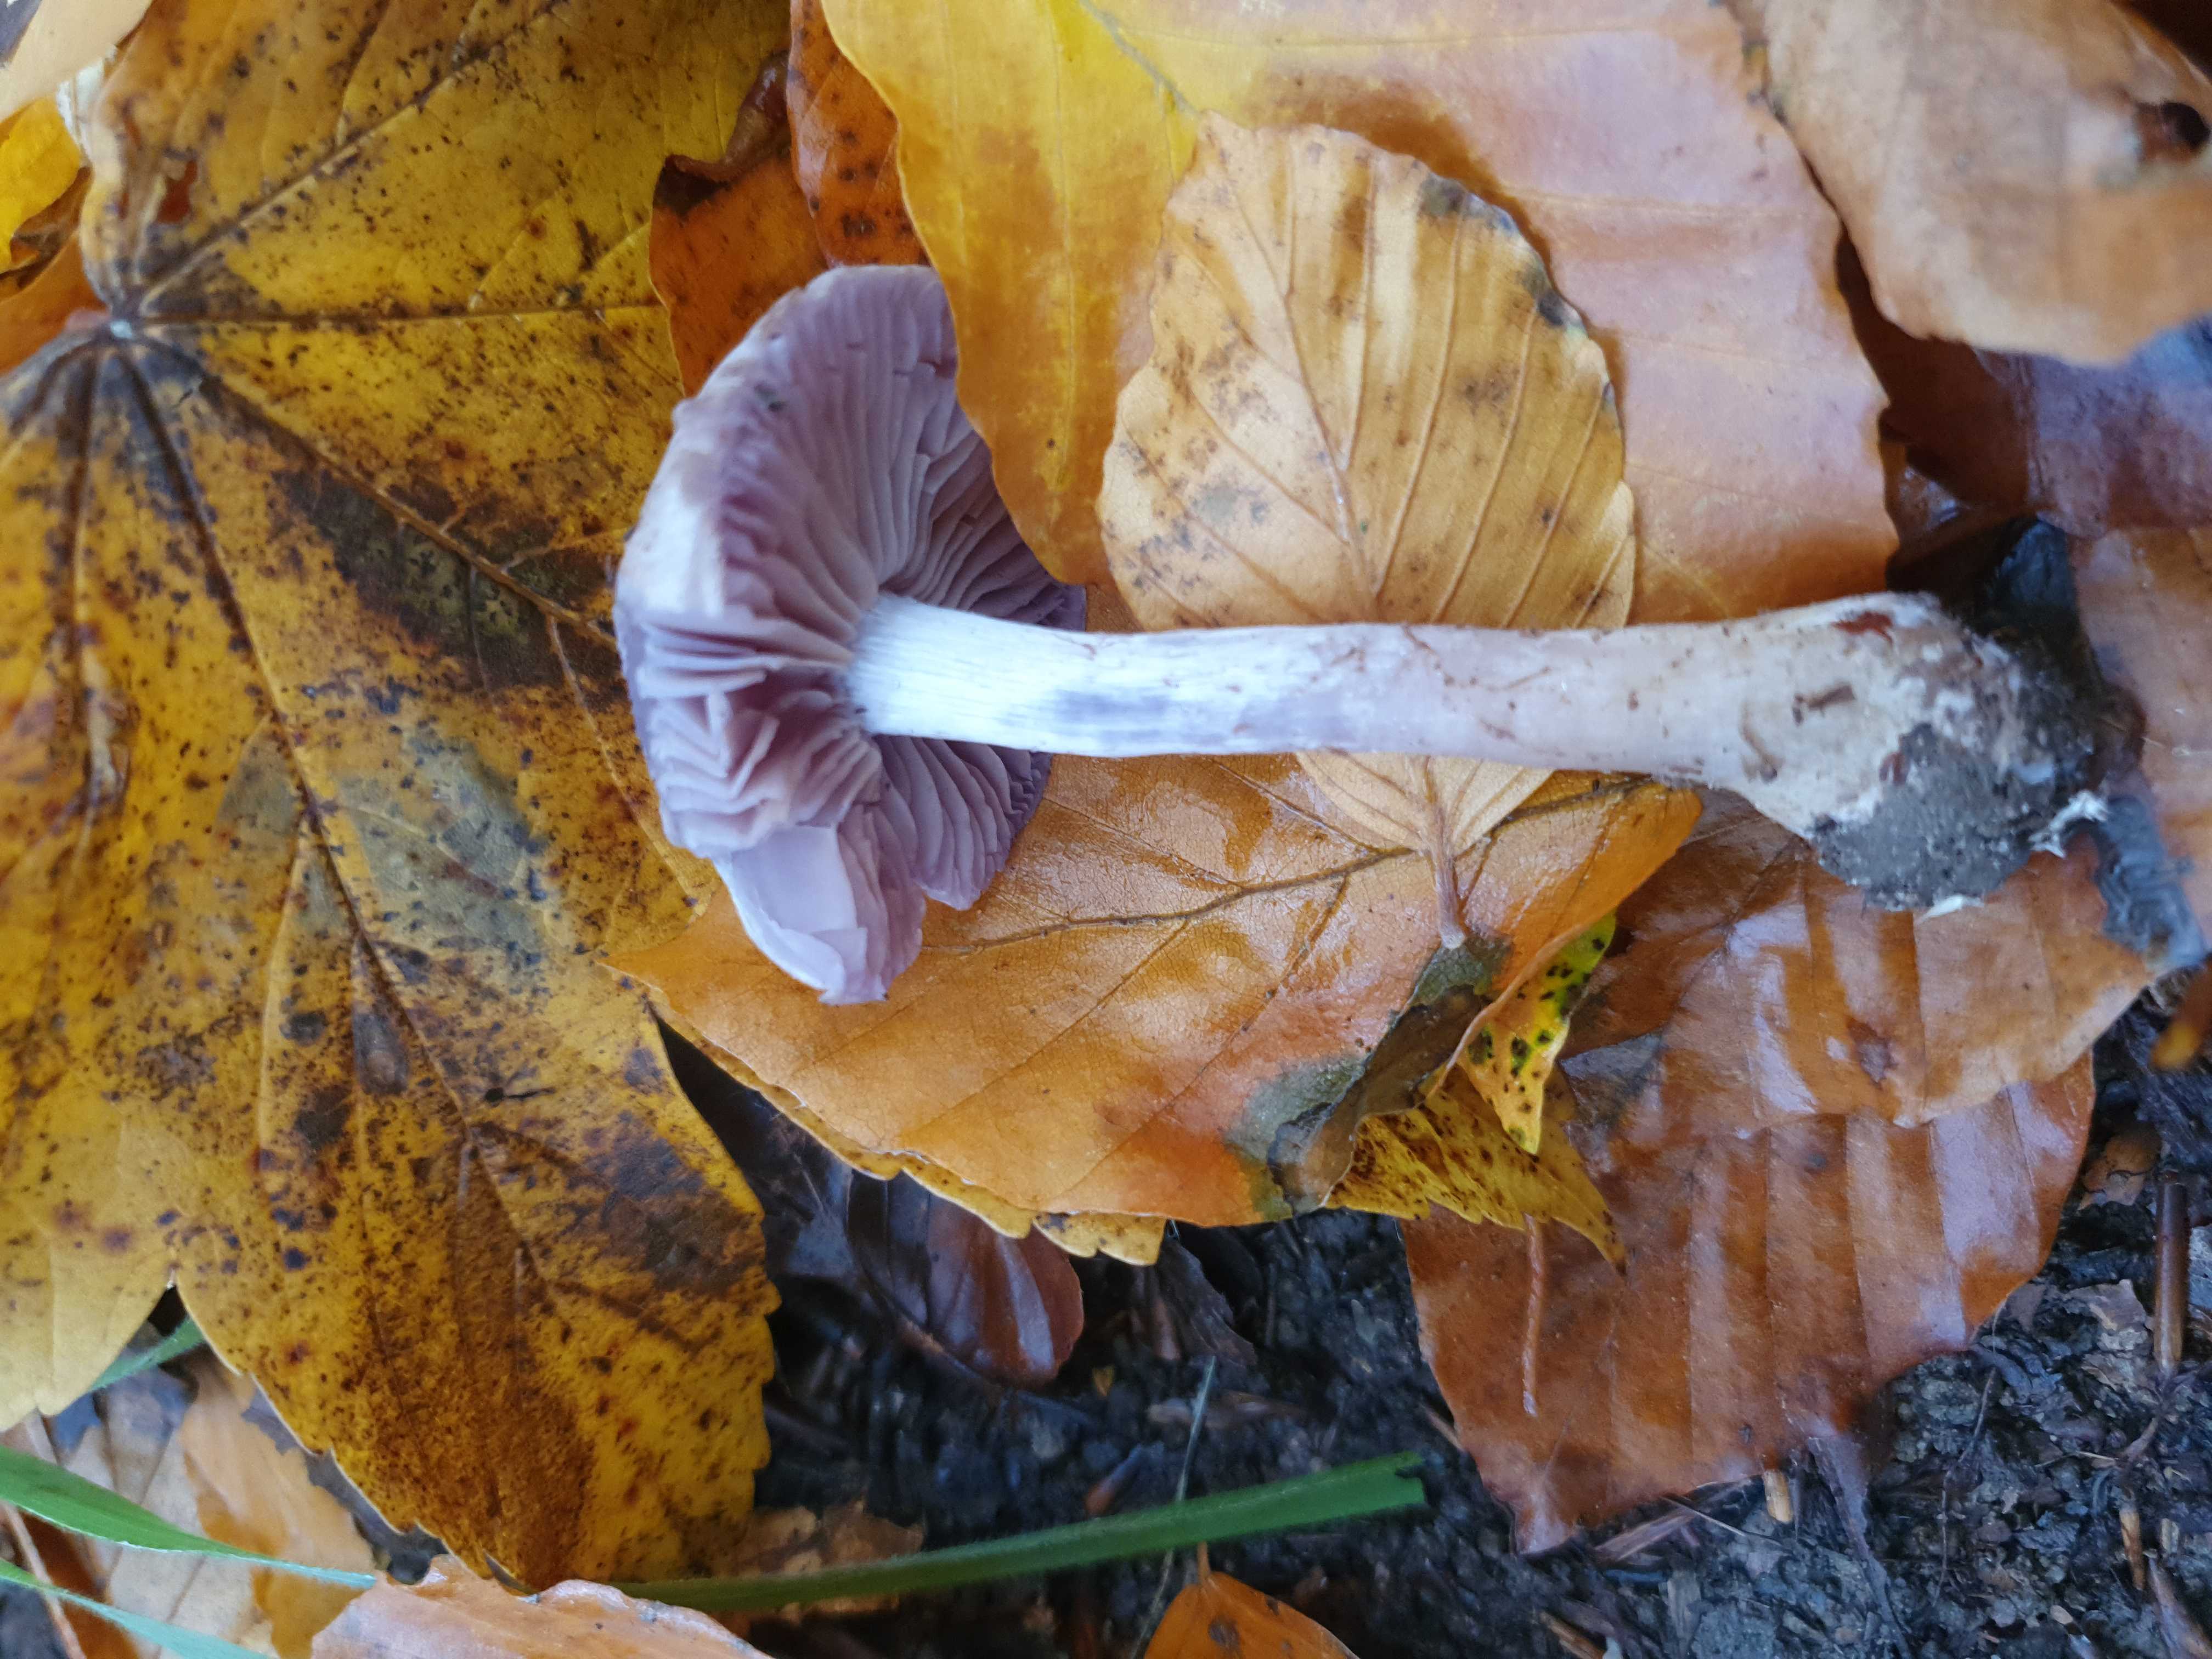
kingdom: Fungi
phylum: Basidiomycota
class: Agaricomycetes
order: Agaricales
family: Cortinariaceae
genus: Cortinarius
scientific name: Cortinarius
